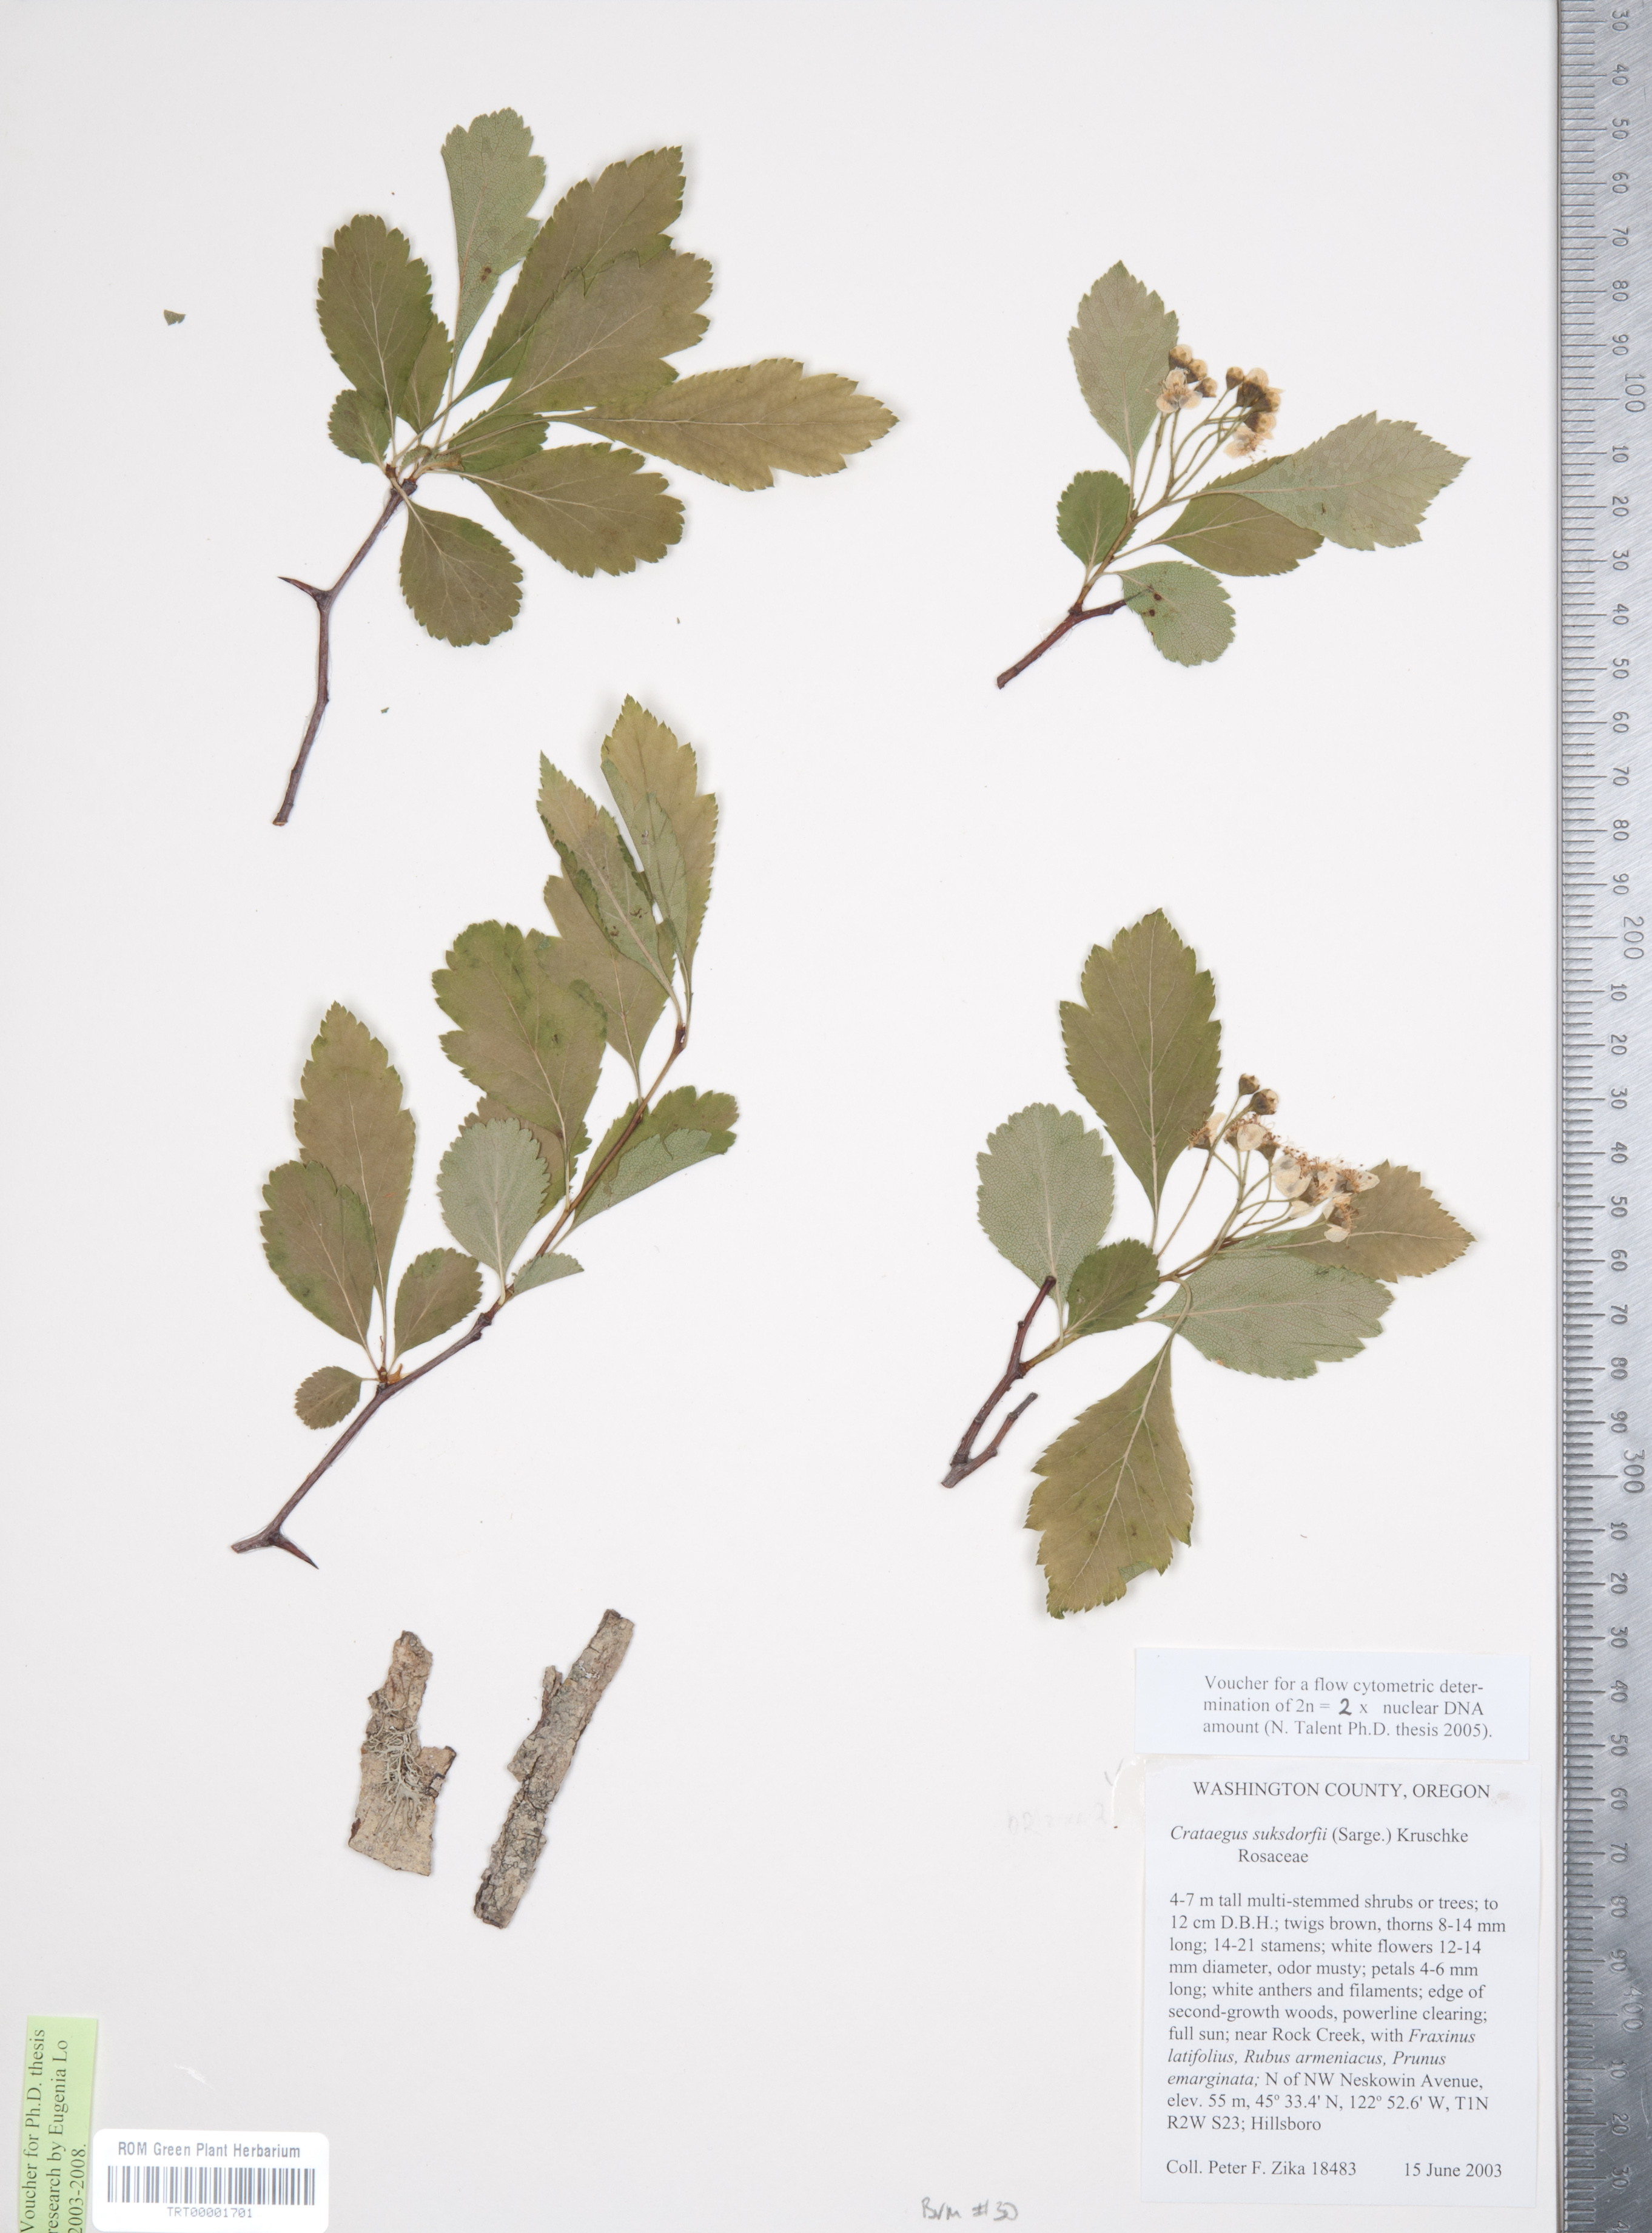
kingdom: Plantae
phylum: Tracheophyta
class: Magnoliopsida
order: Rosales
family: Rosaceae
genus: Crataegus
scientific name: Crataegus gaylussacia
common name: Huckleberry hawthorn
